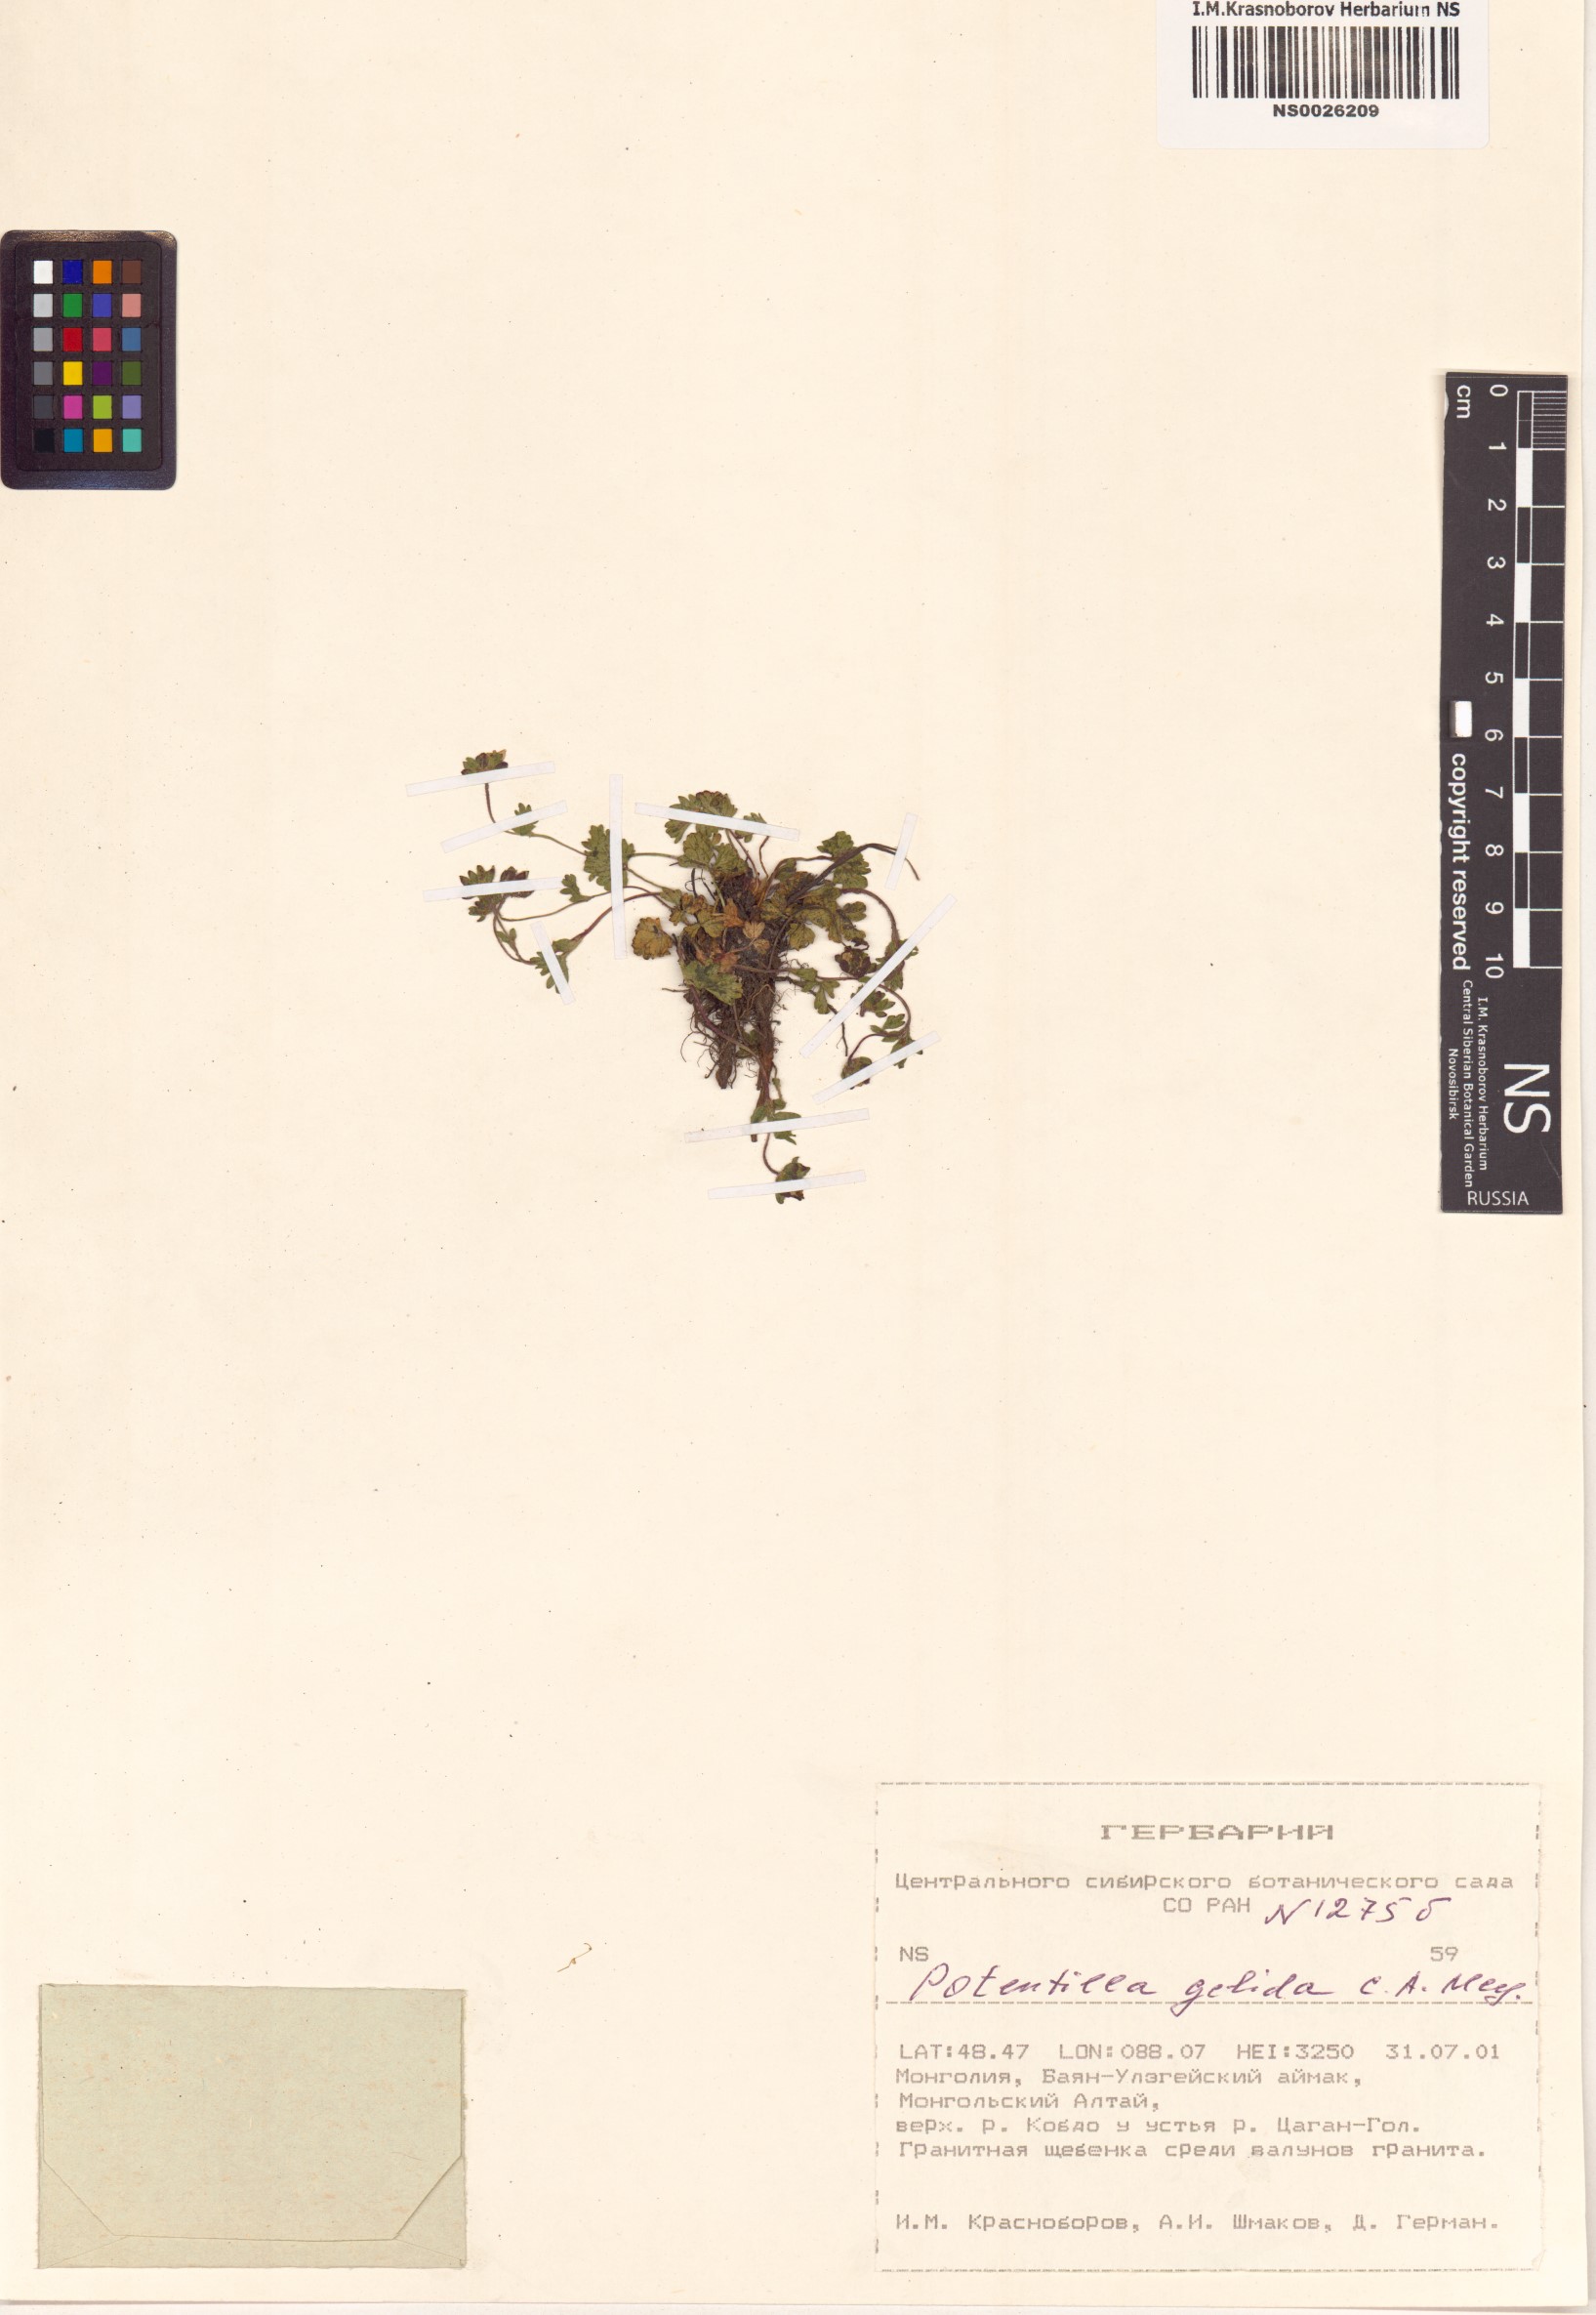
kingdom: Plantae
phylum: Tracheophyta
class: Magnoliopsida
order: Rosales
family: Rosaceae
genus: Potentilla
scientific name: Potentilla crantzii
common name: Alpine cinquefoil
